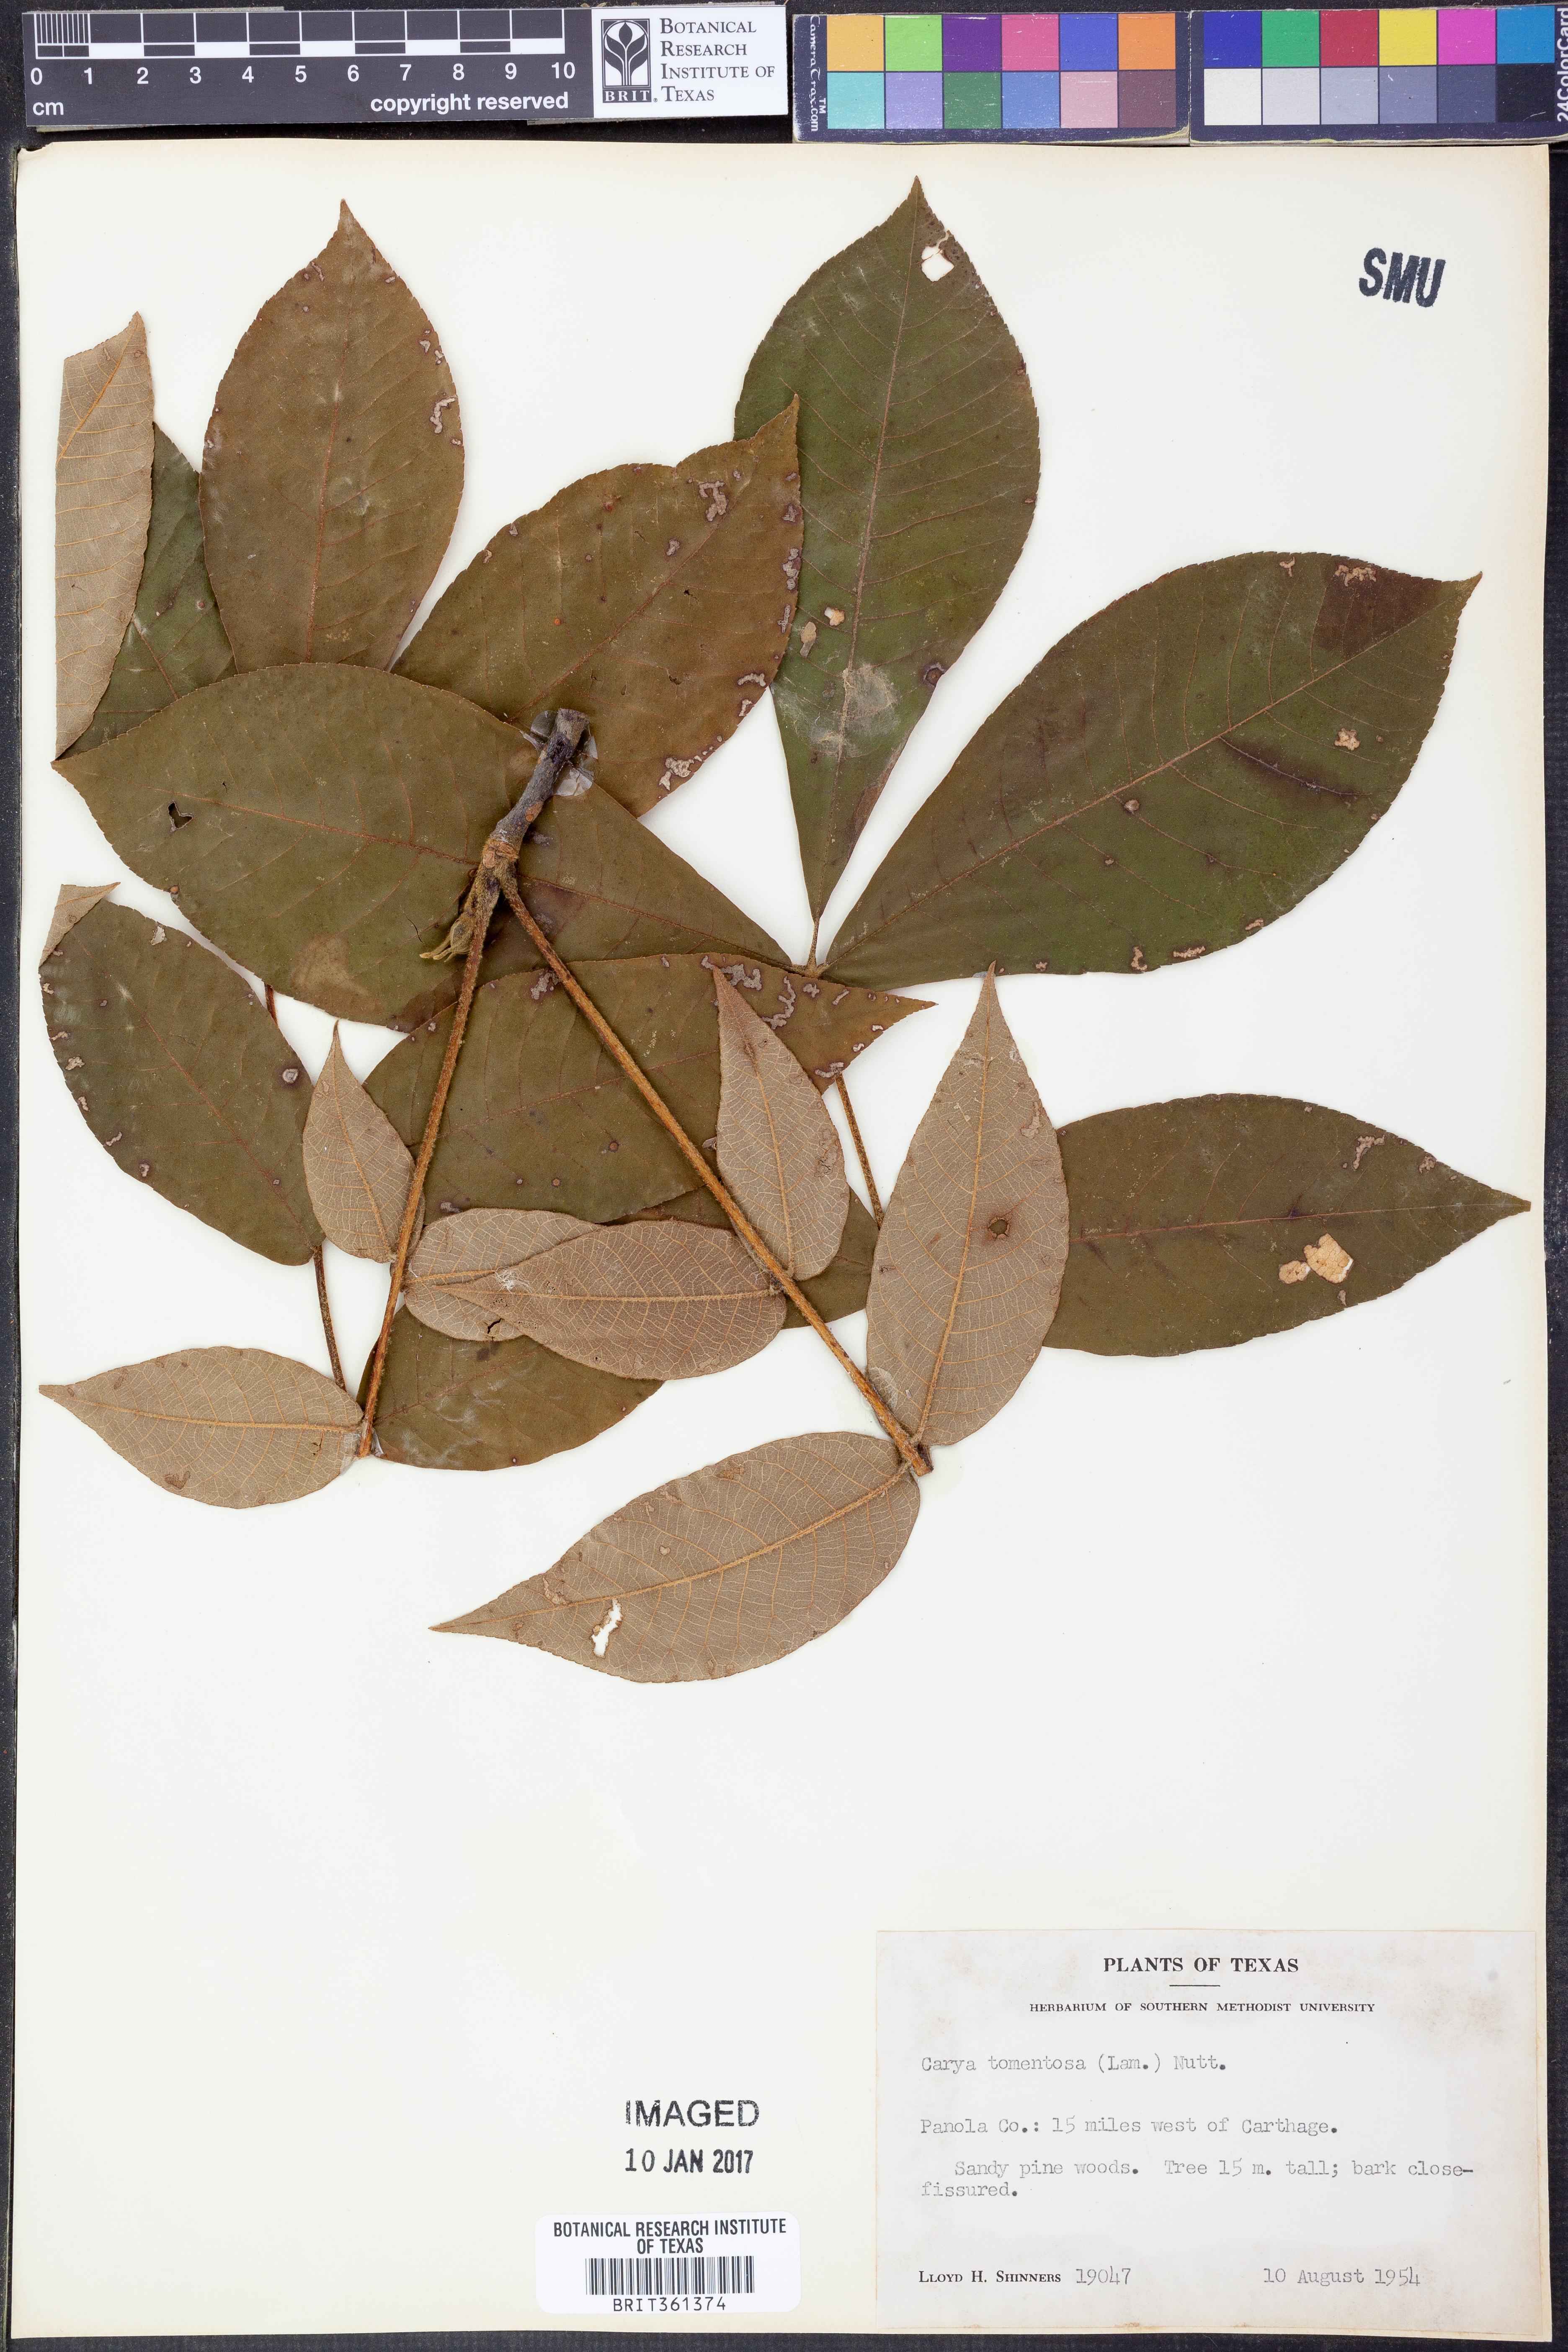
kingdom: Plantae
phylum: Tracheophyta
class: Magnoliopsida
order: Fagales
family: Juglandaceae
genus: Carya
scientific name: Carya alba
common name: Mockernut hickory
